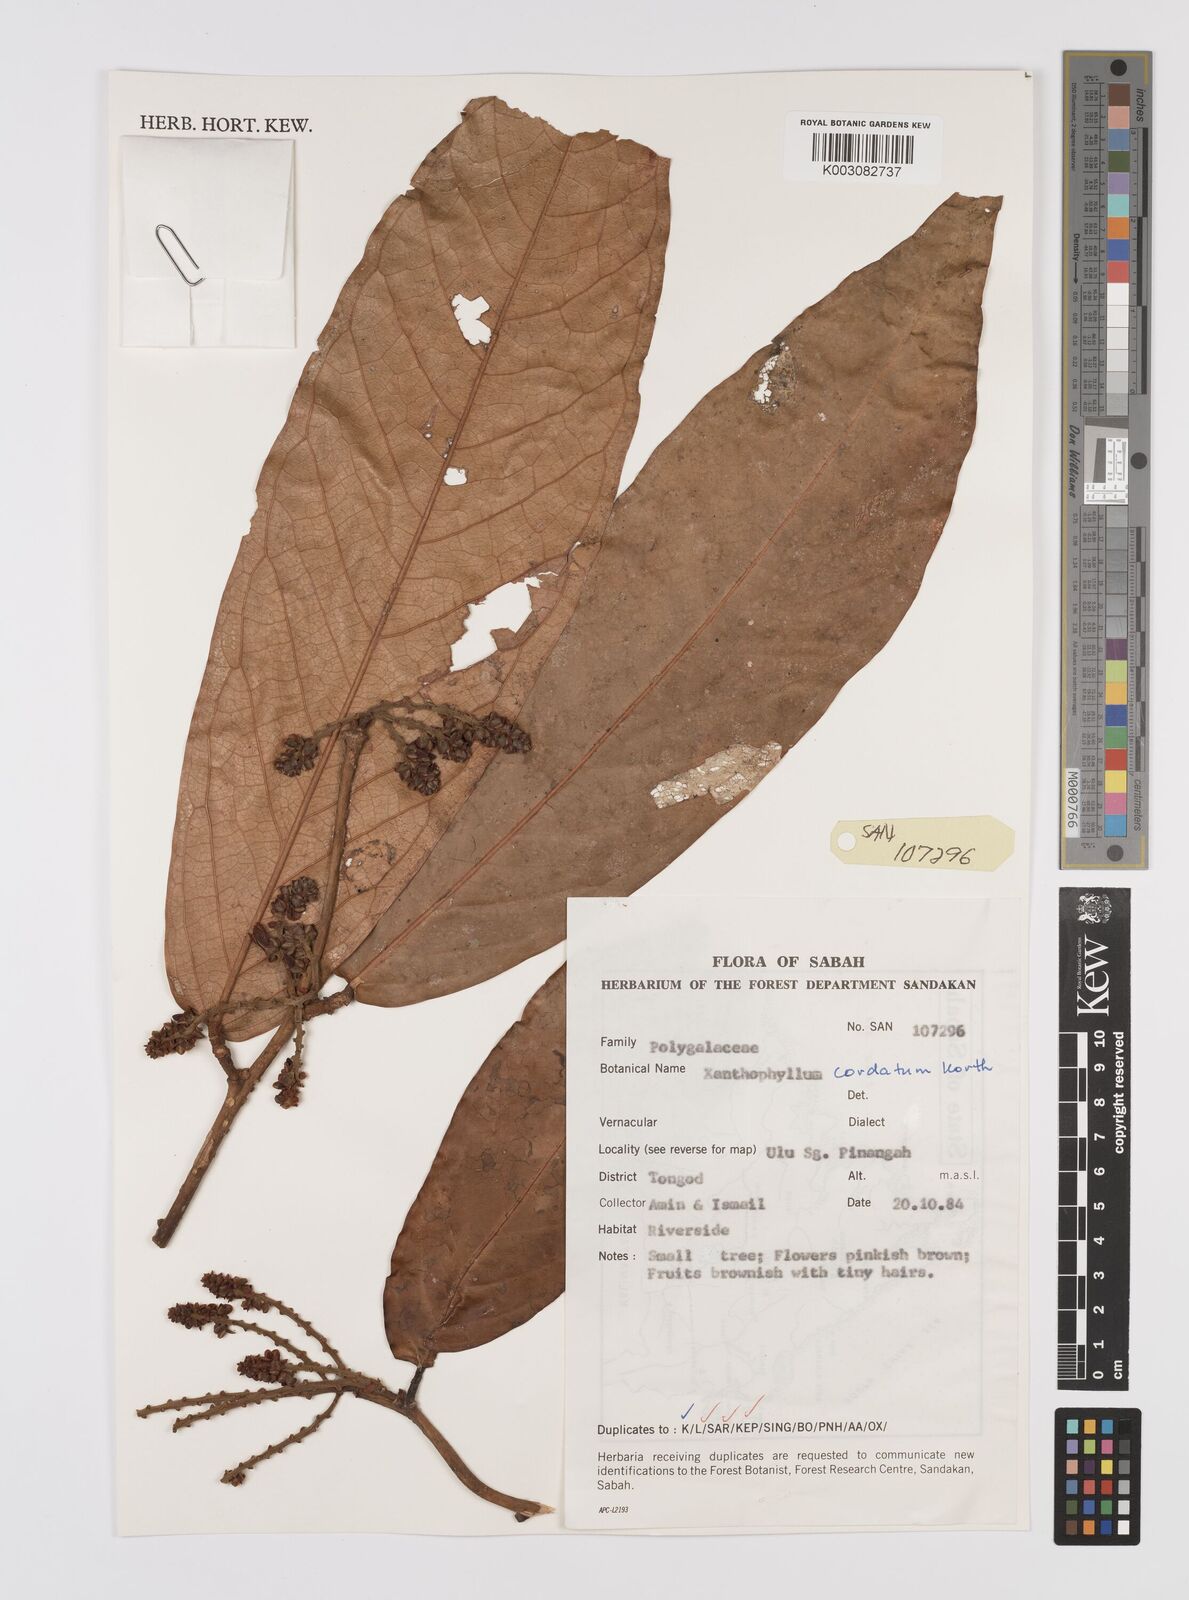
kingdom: Plantae
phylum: Tracheophyta
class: Magnoliopsida
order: Fabales
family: Polygalaceae
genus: Xanthophyllum
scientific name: Xanthophyllum adenotus
